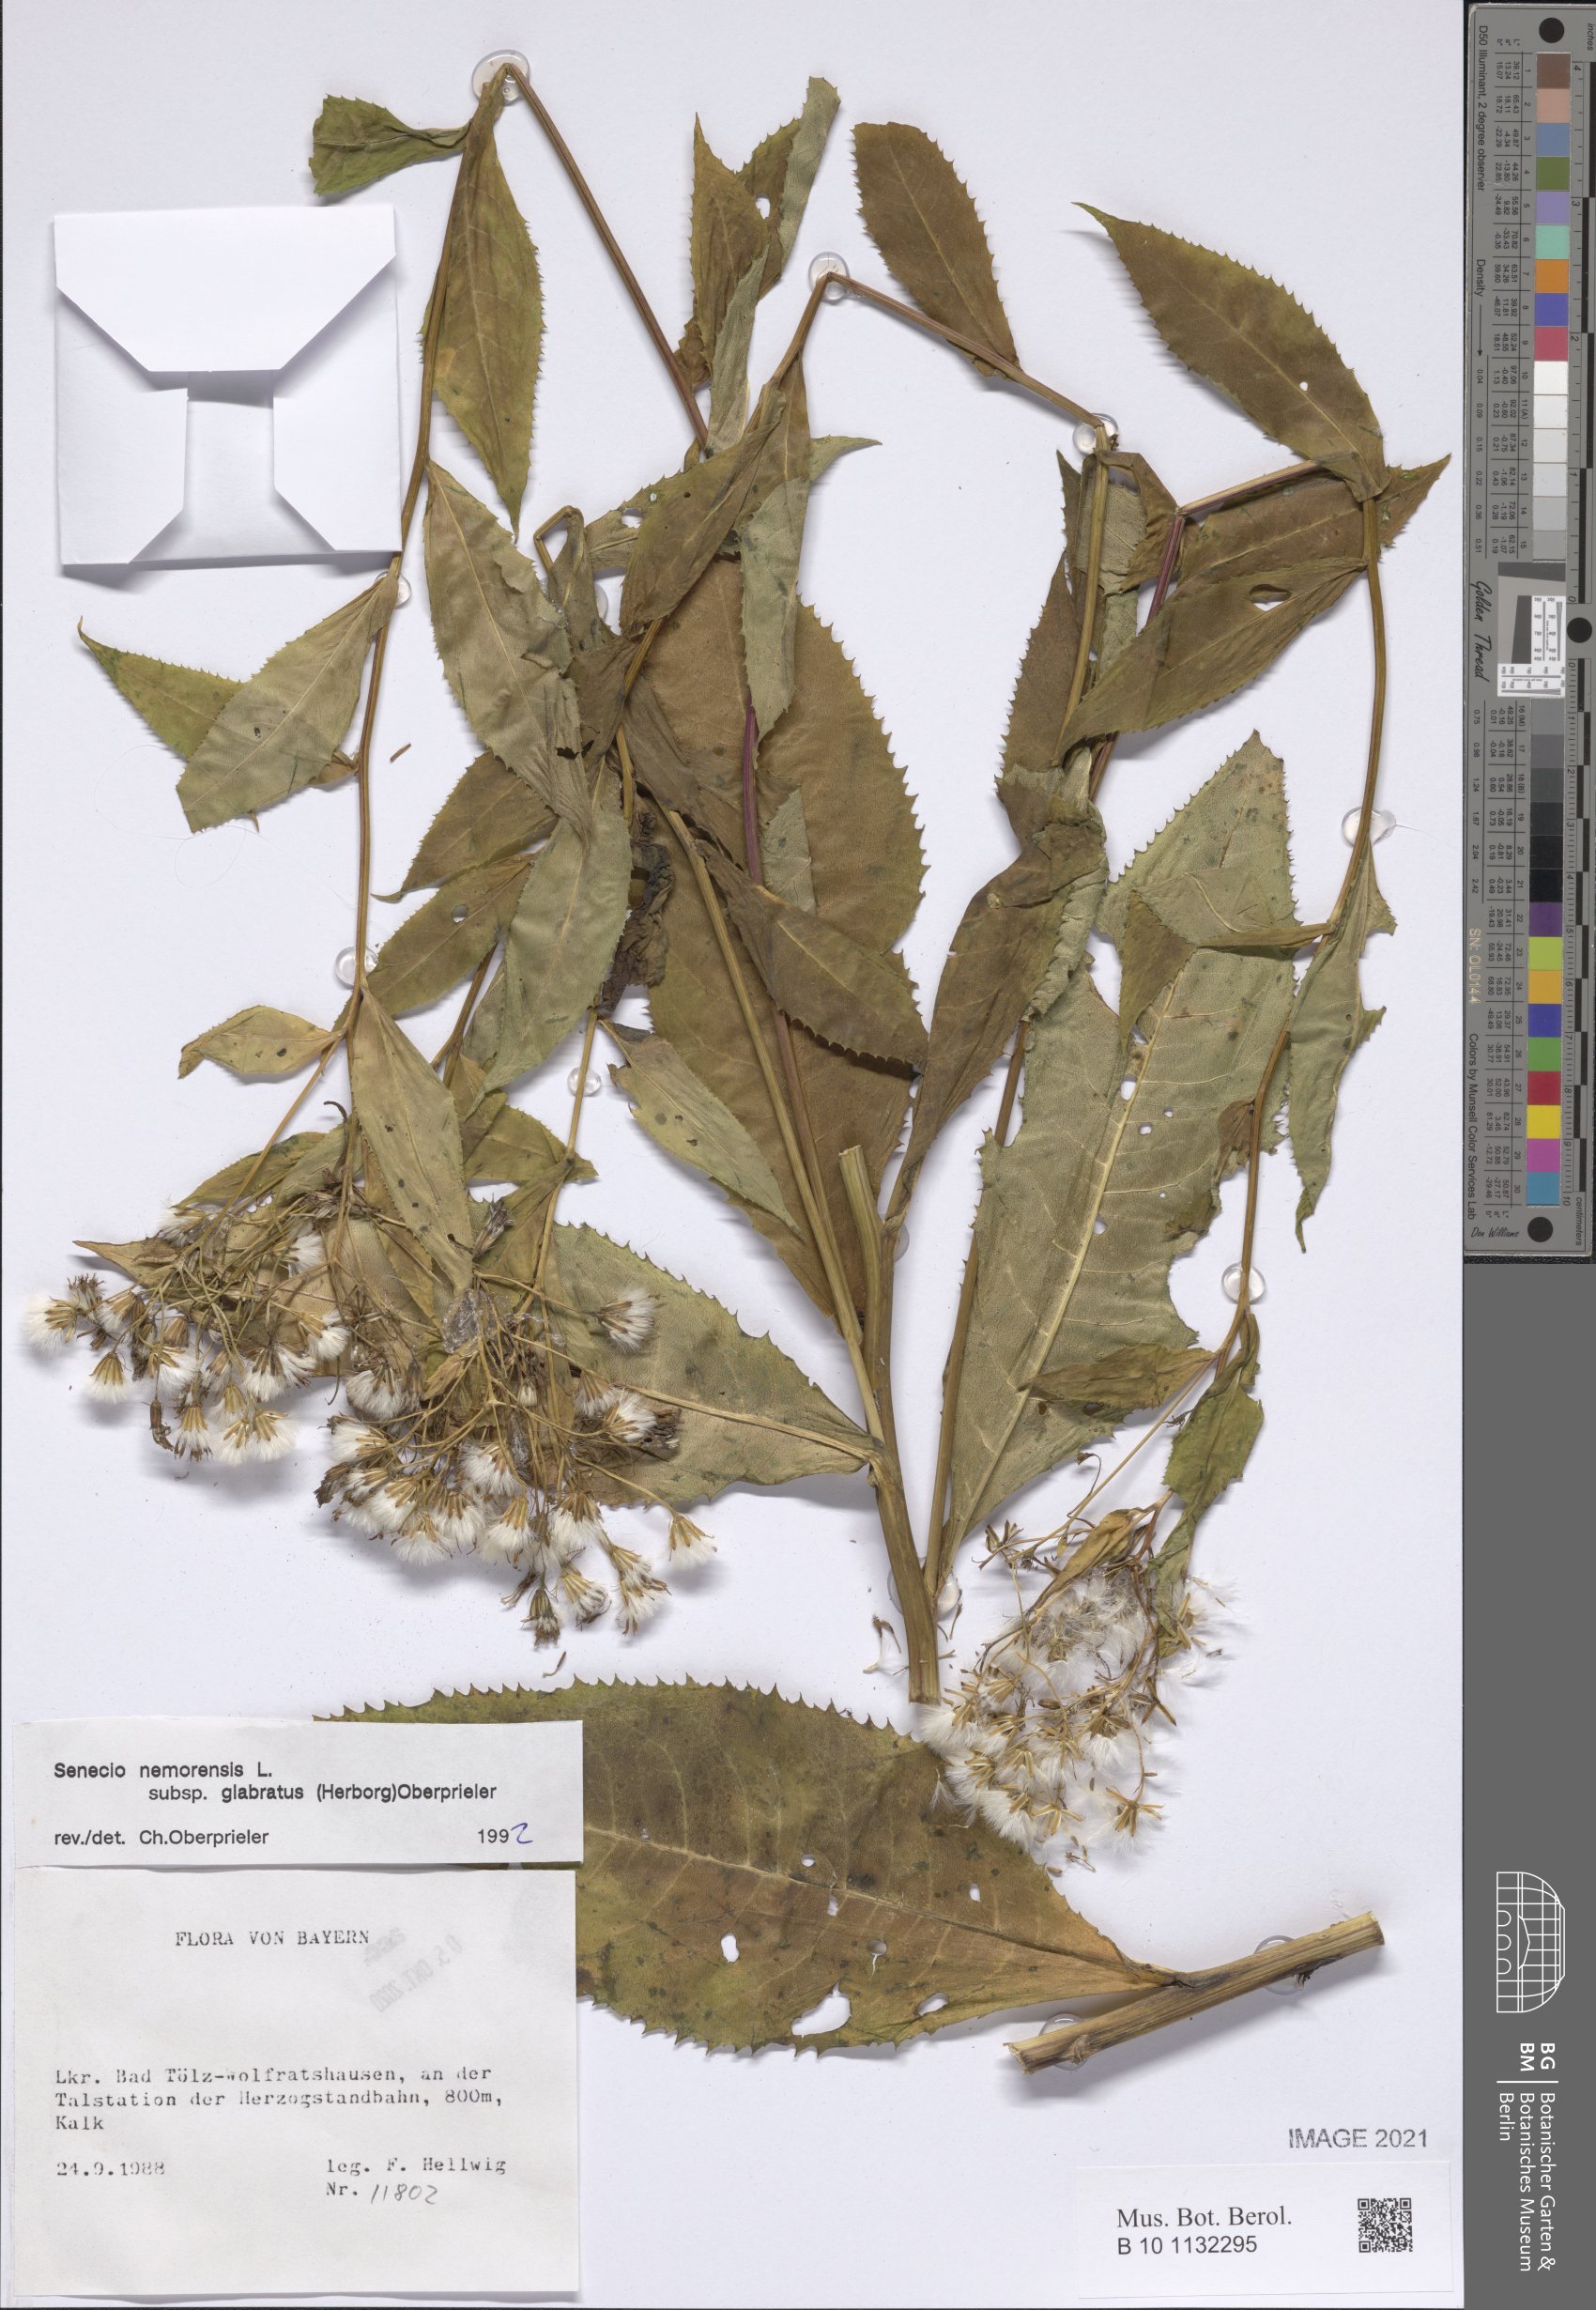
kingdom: Plantae
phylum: Tracheophyta
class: Magnoliopsida
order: Asterales
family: Asteraceae
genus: Senecio
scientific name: Senecio germanicus
